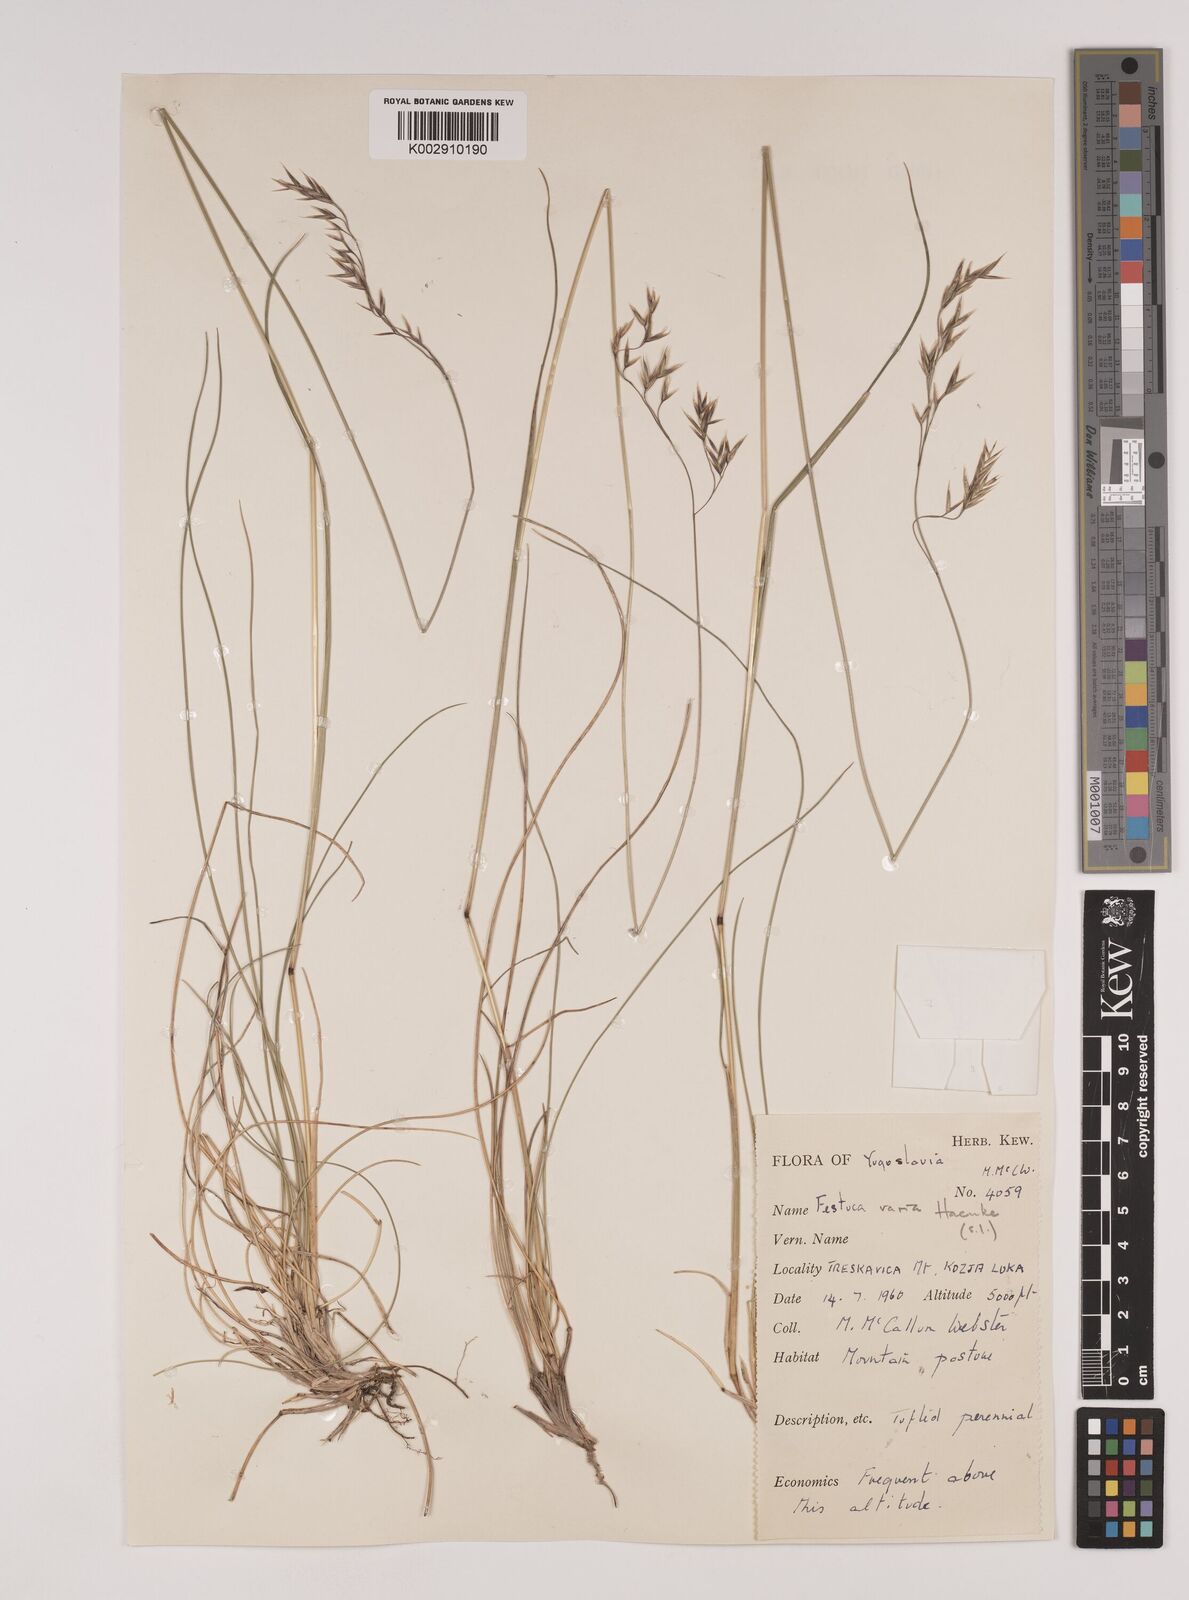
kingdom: Plantae
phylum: Tracheophyta
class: Liliopsida
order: Poales
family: Poaceae
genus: Festuca
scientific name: Festuca varia
